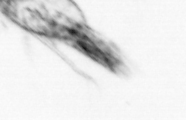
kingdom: Animalia
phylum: Arthropoda
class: Copepoda
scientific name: Copepoda
